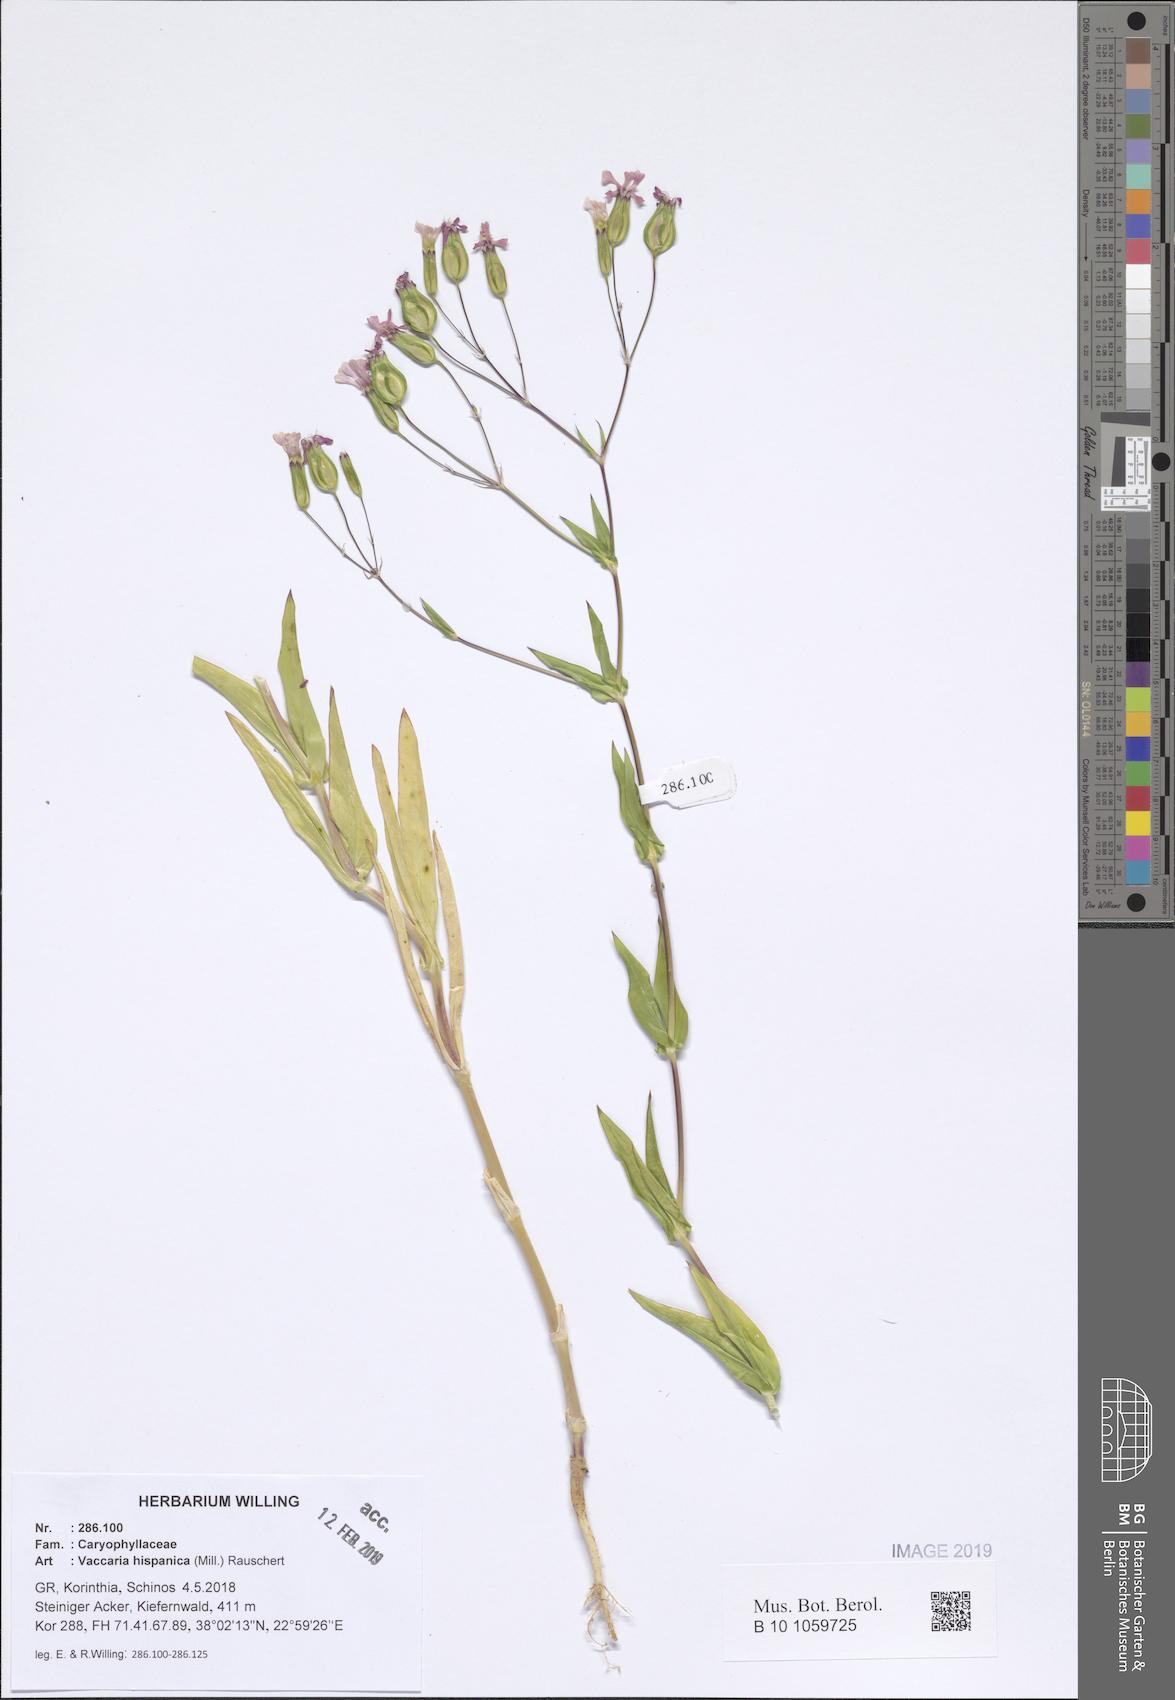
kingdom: Plantae
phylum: Tracheophyta
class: Magnoliopsida
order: Caryophyllales
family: Caryophyllaceae
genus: Gypsophila
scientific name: Gypsophila vaccaria
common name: Cow soapwort
